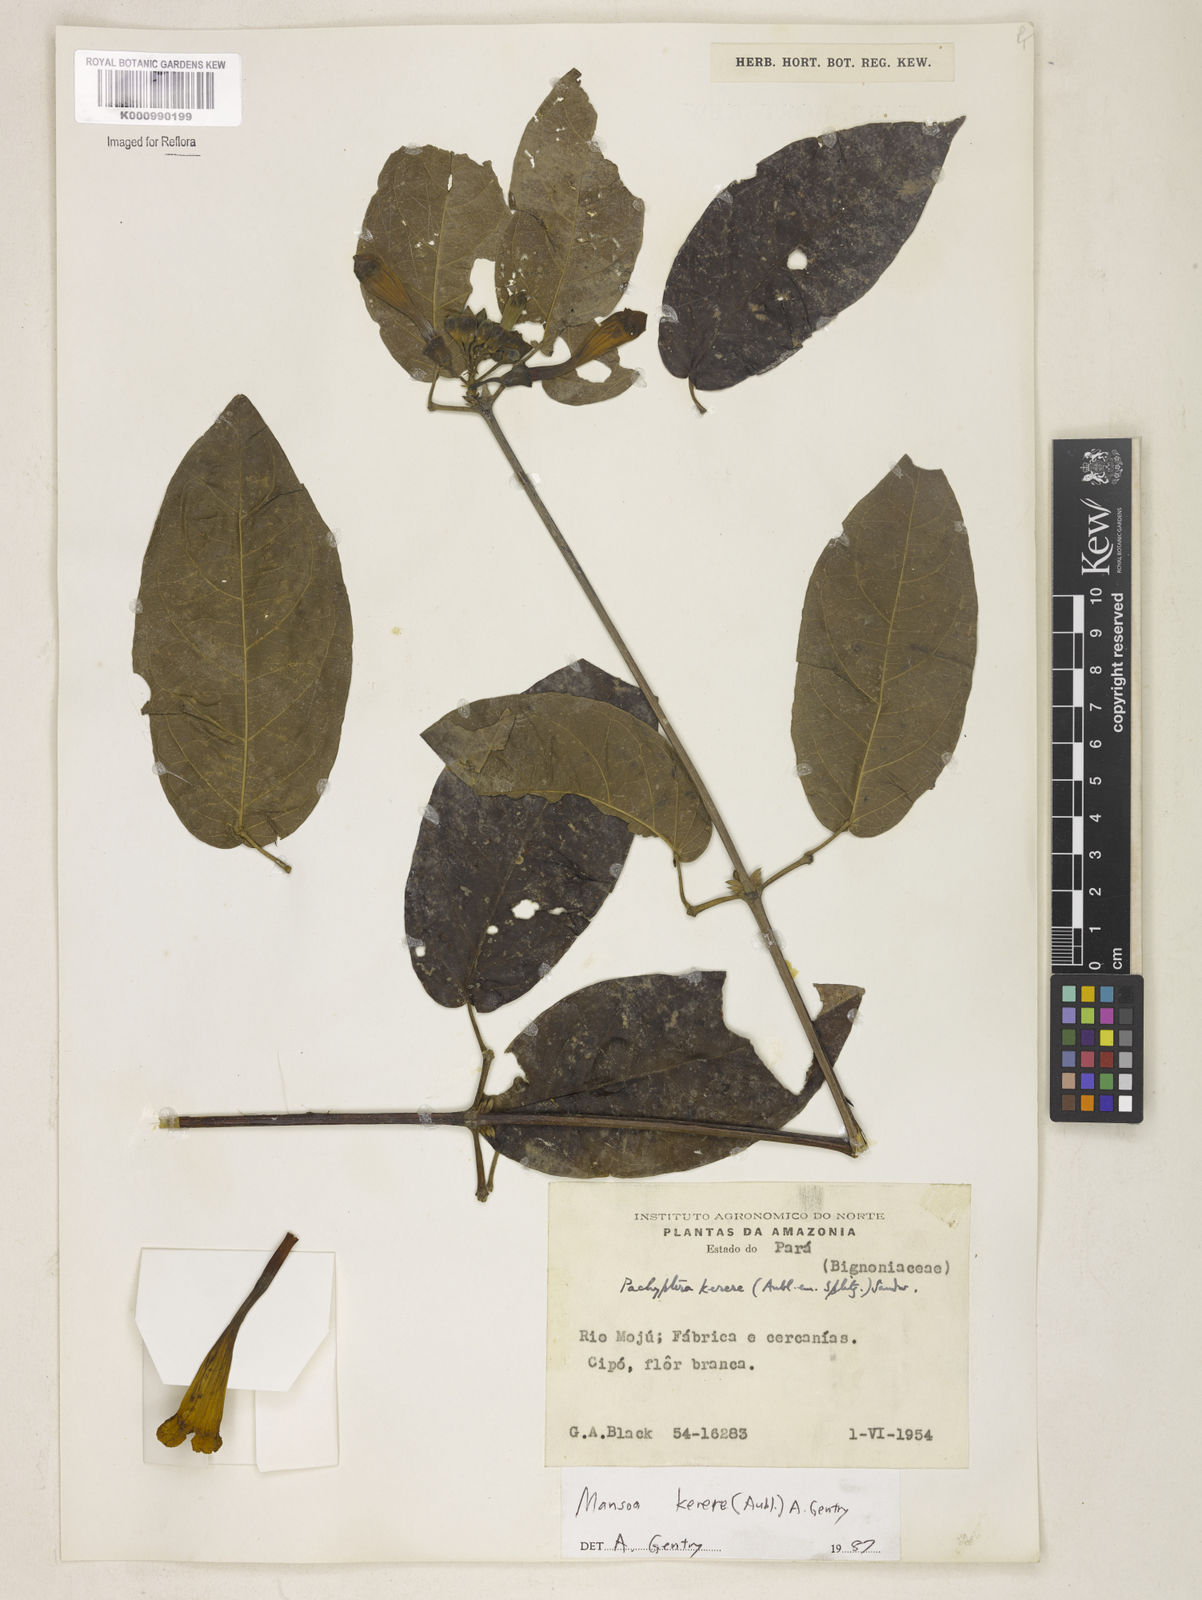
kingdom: Plantae
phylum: Tracheophyta
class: Magnoliopsida
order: Lamiales
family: Bignoniaceae
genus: Pachyptera
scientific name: Pachyptera kerere
